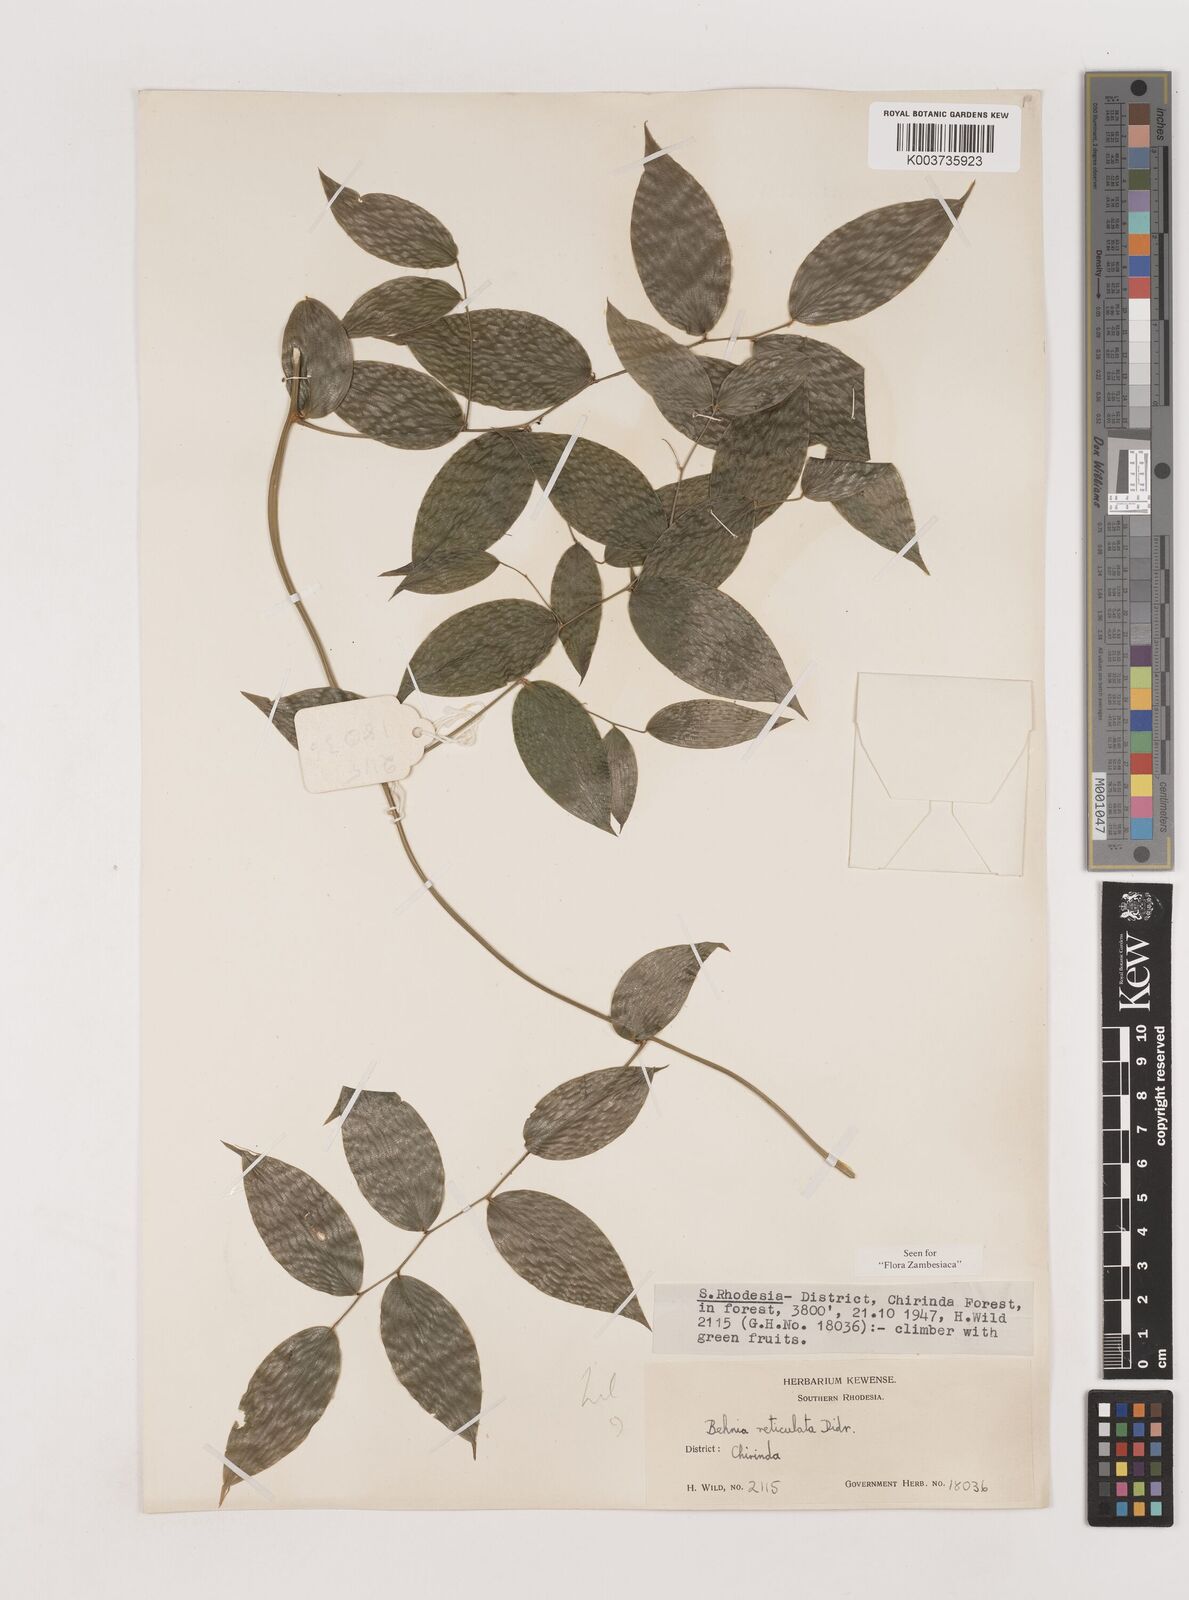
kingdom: Plantae
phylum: Tracheophyta
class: Liliopsida
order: Asparagales
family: Asparagaceae
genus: Behnia
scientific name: Behnia reticulata
